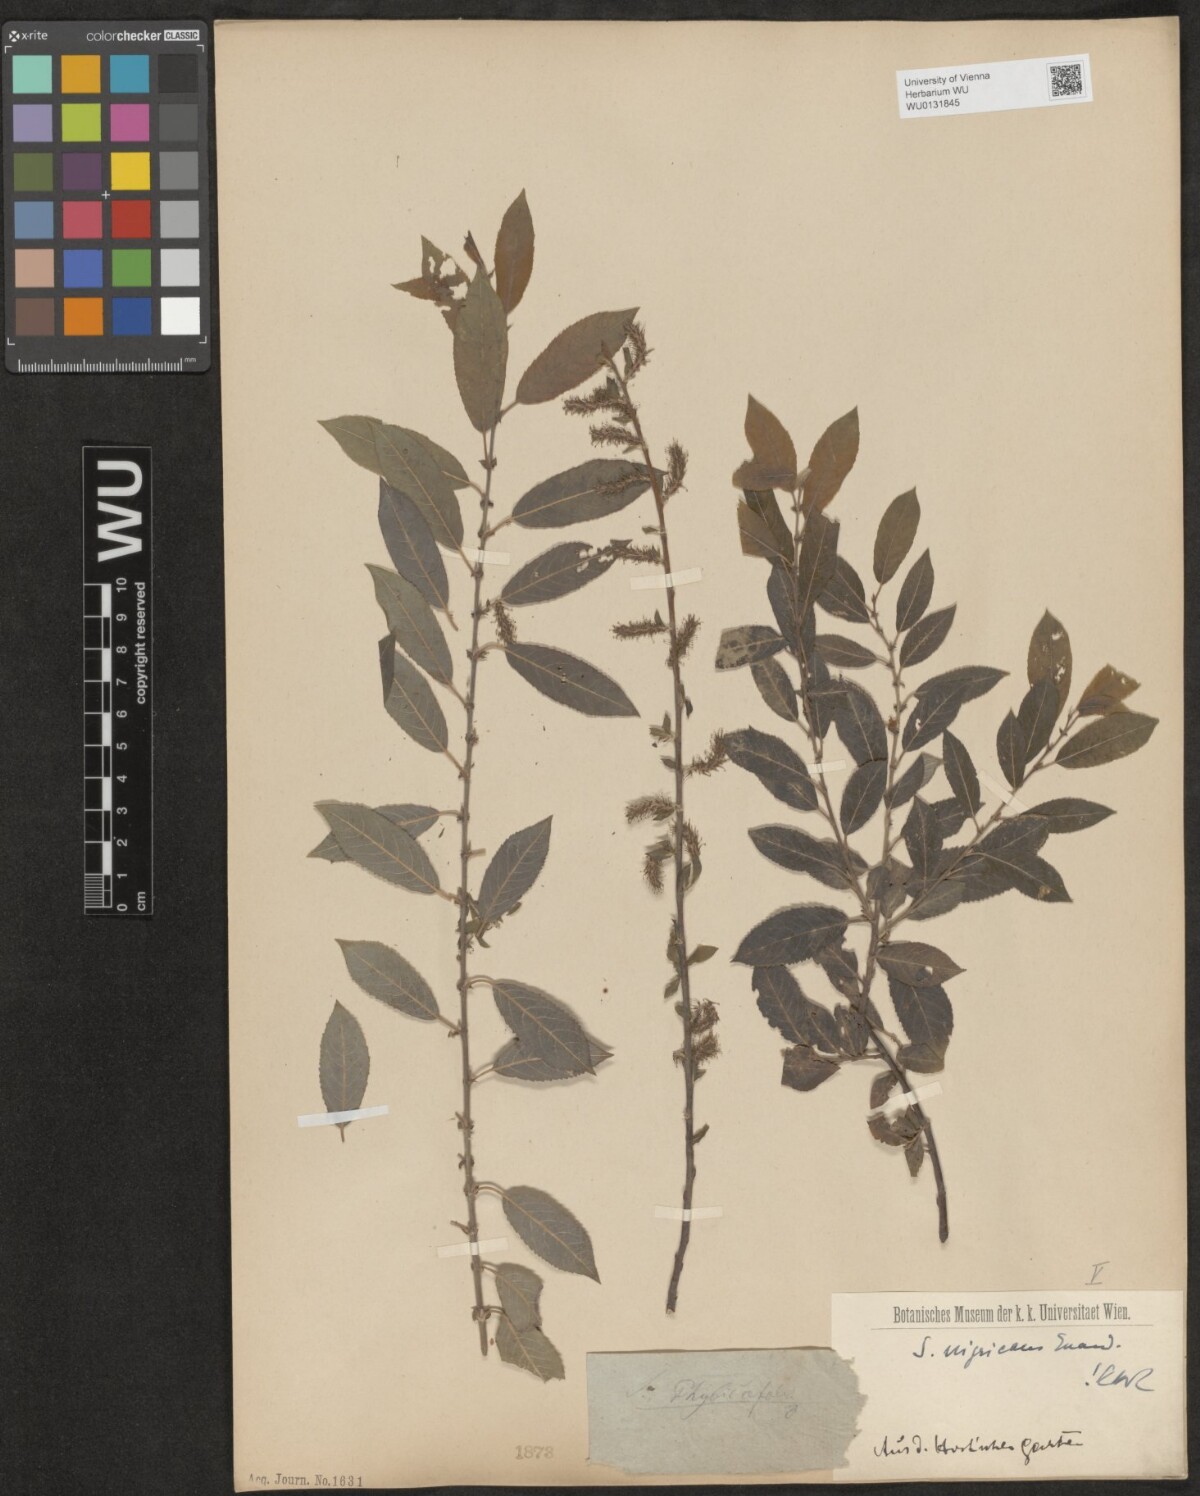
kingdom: Plantae
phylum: Tracheophyta
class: Magnoliopsida
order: Malpighiales
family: Salicaceae
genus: Salix
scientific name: Salix myrsinifolia
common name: Dark-leaved willow
